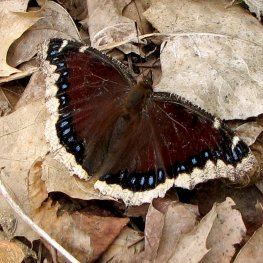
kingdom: Animalia
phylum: Arthropoda
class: Insecta
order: Lepidoptera
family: Nymphalidae
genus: Nymphalis
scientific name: Nymphalis antiopa
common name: Mourning Cloak
